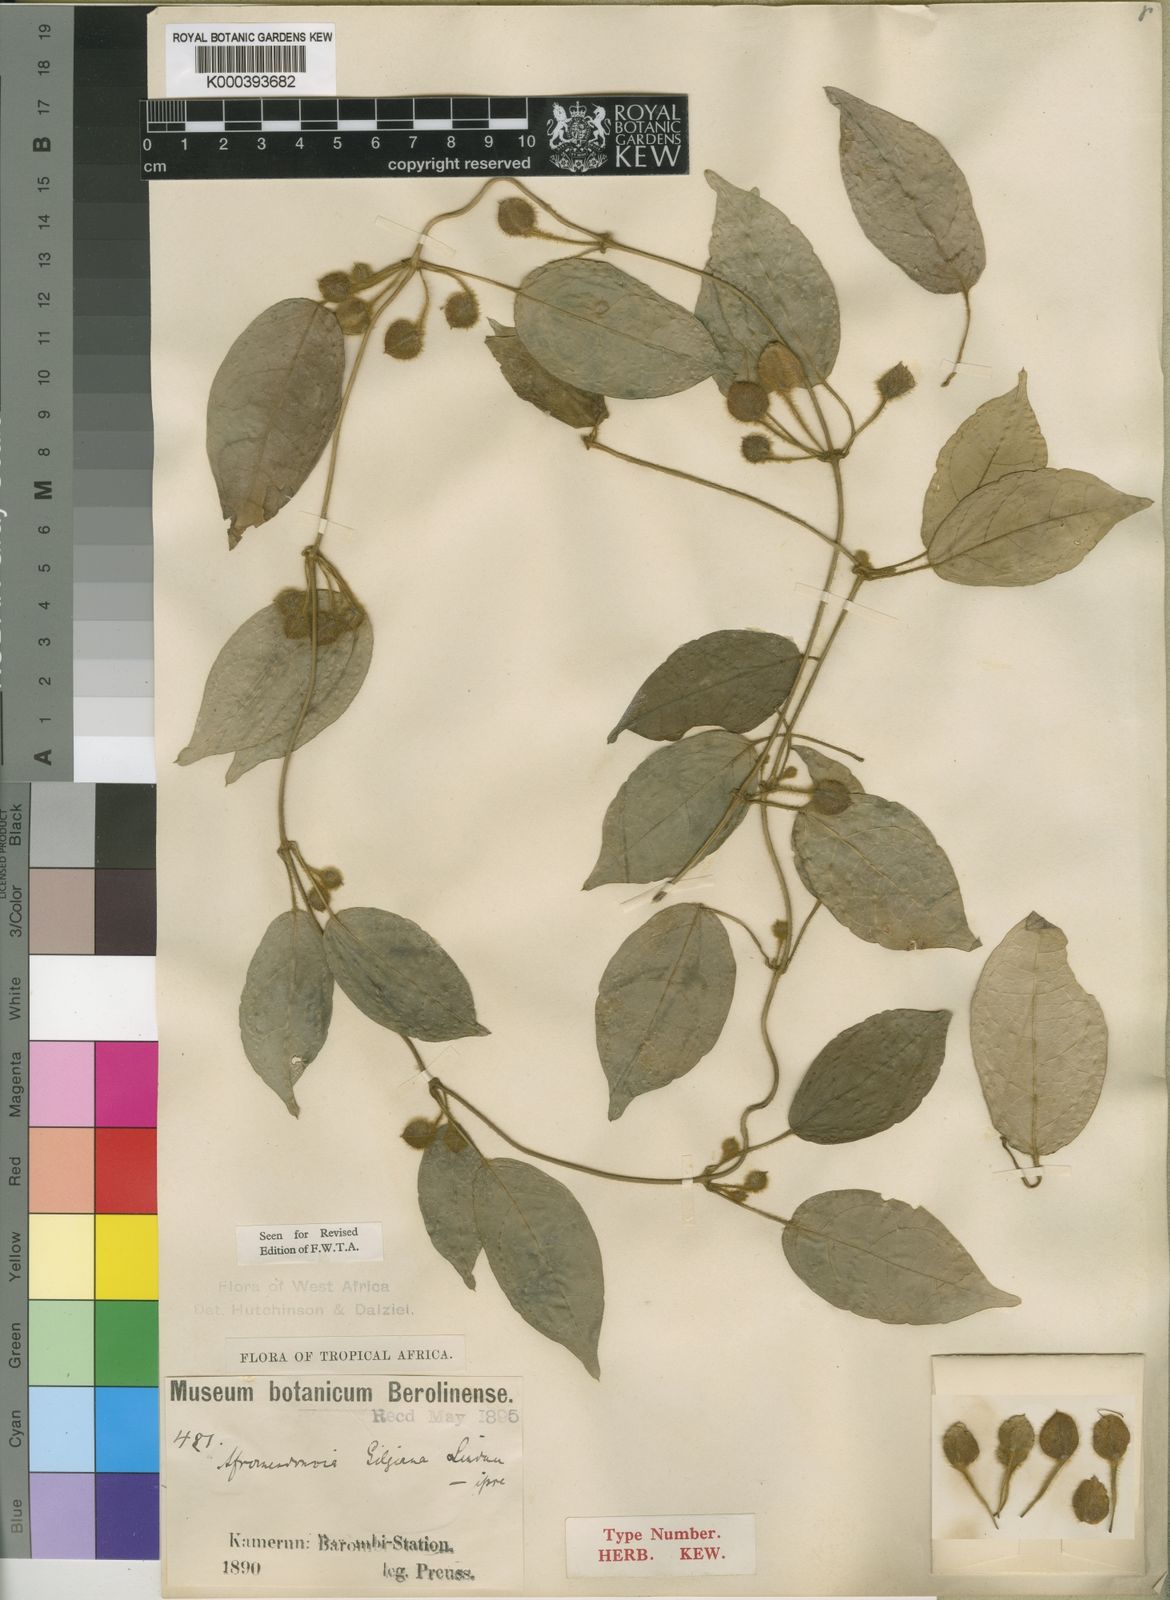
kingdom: Plantae
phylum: Tracheophyta
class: Magnoliopsida
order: Lamiales
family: Acanthaceae
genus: Mendoncia
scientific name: Mendoncia gilgiana
